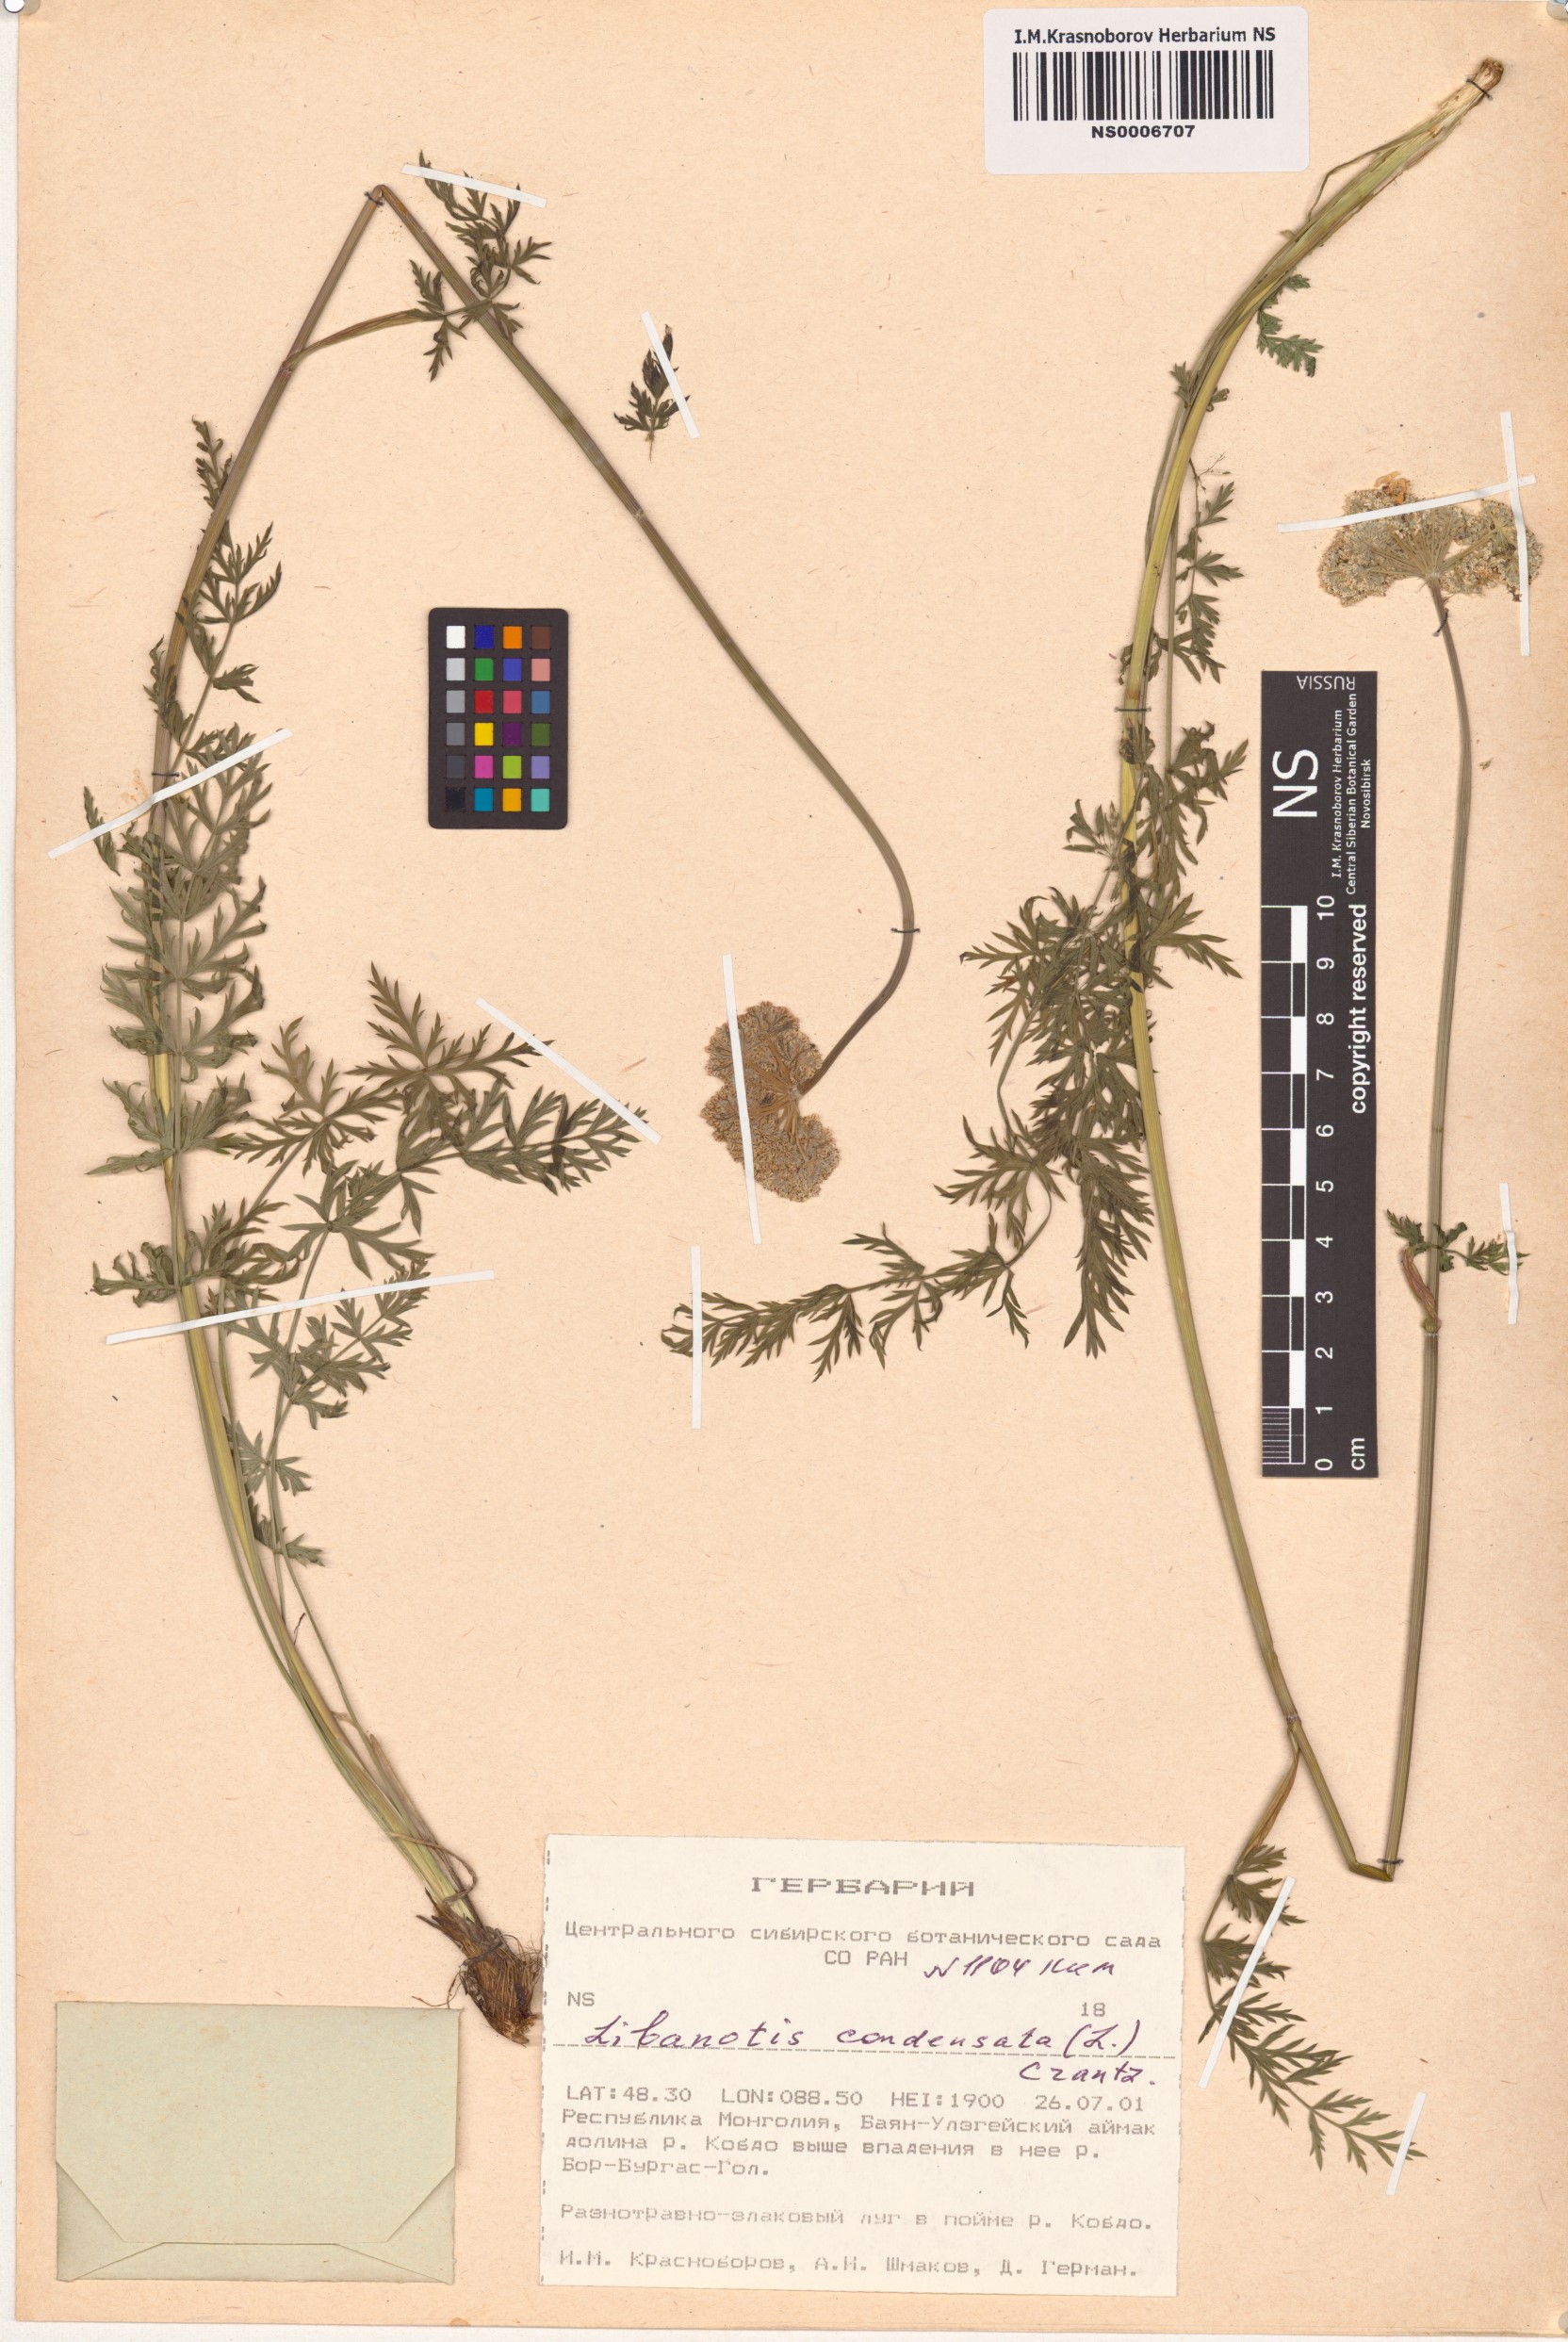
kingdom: Plantae
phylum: Tracheophyta
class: Magnoliopsida
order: Apiales
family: Apiaceae
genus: Seseli
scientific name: Seseli condensatum
